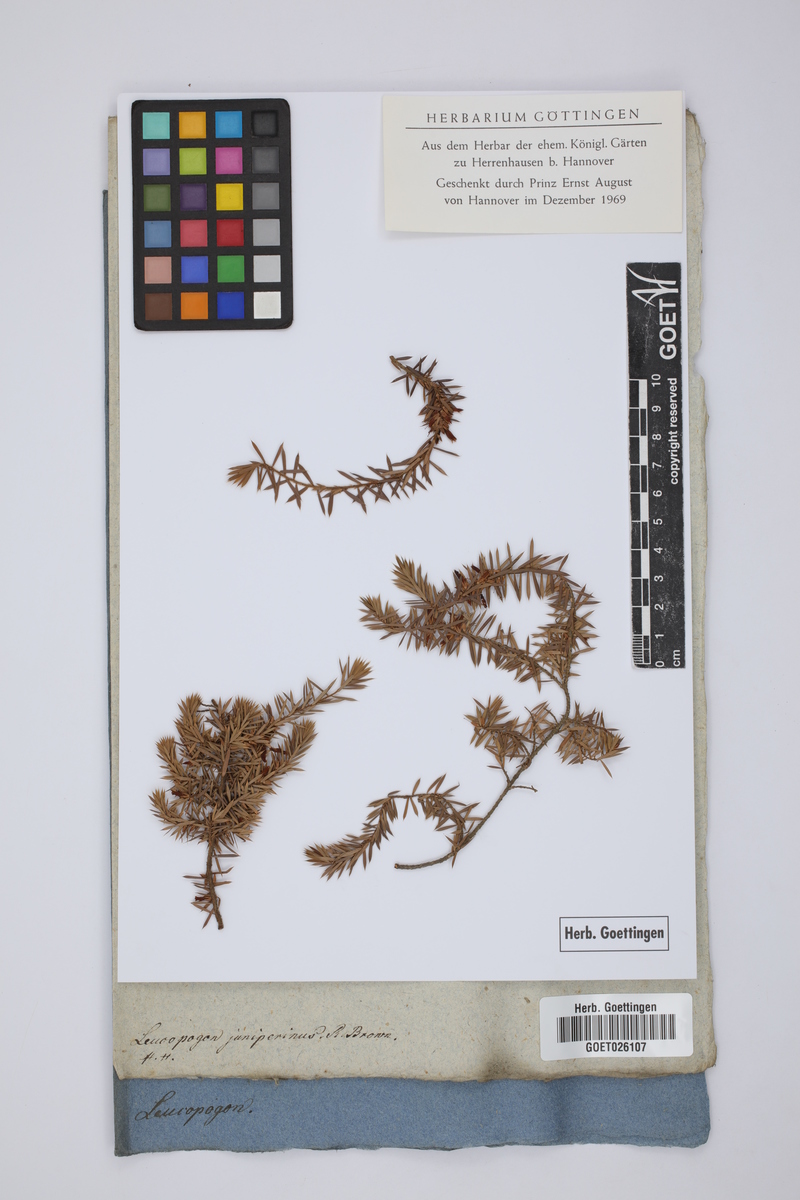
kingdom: Plantae
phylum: Tracheophyta
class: Magnoliopsida
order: Ericales
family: Ericaceae
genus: Styphelia
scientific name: Styphelia sieberi
